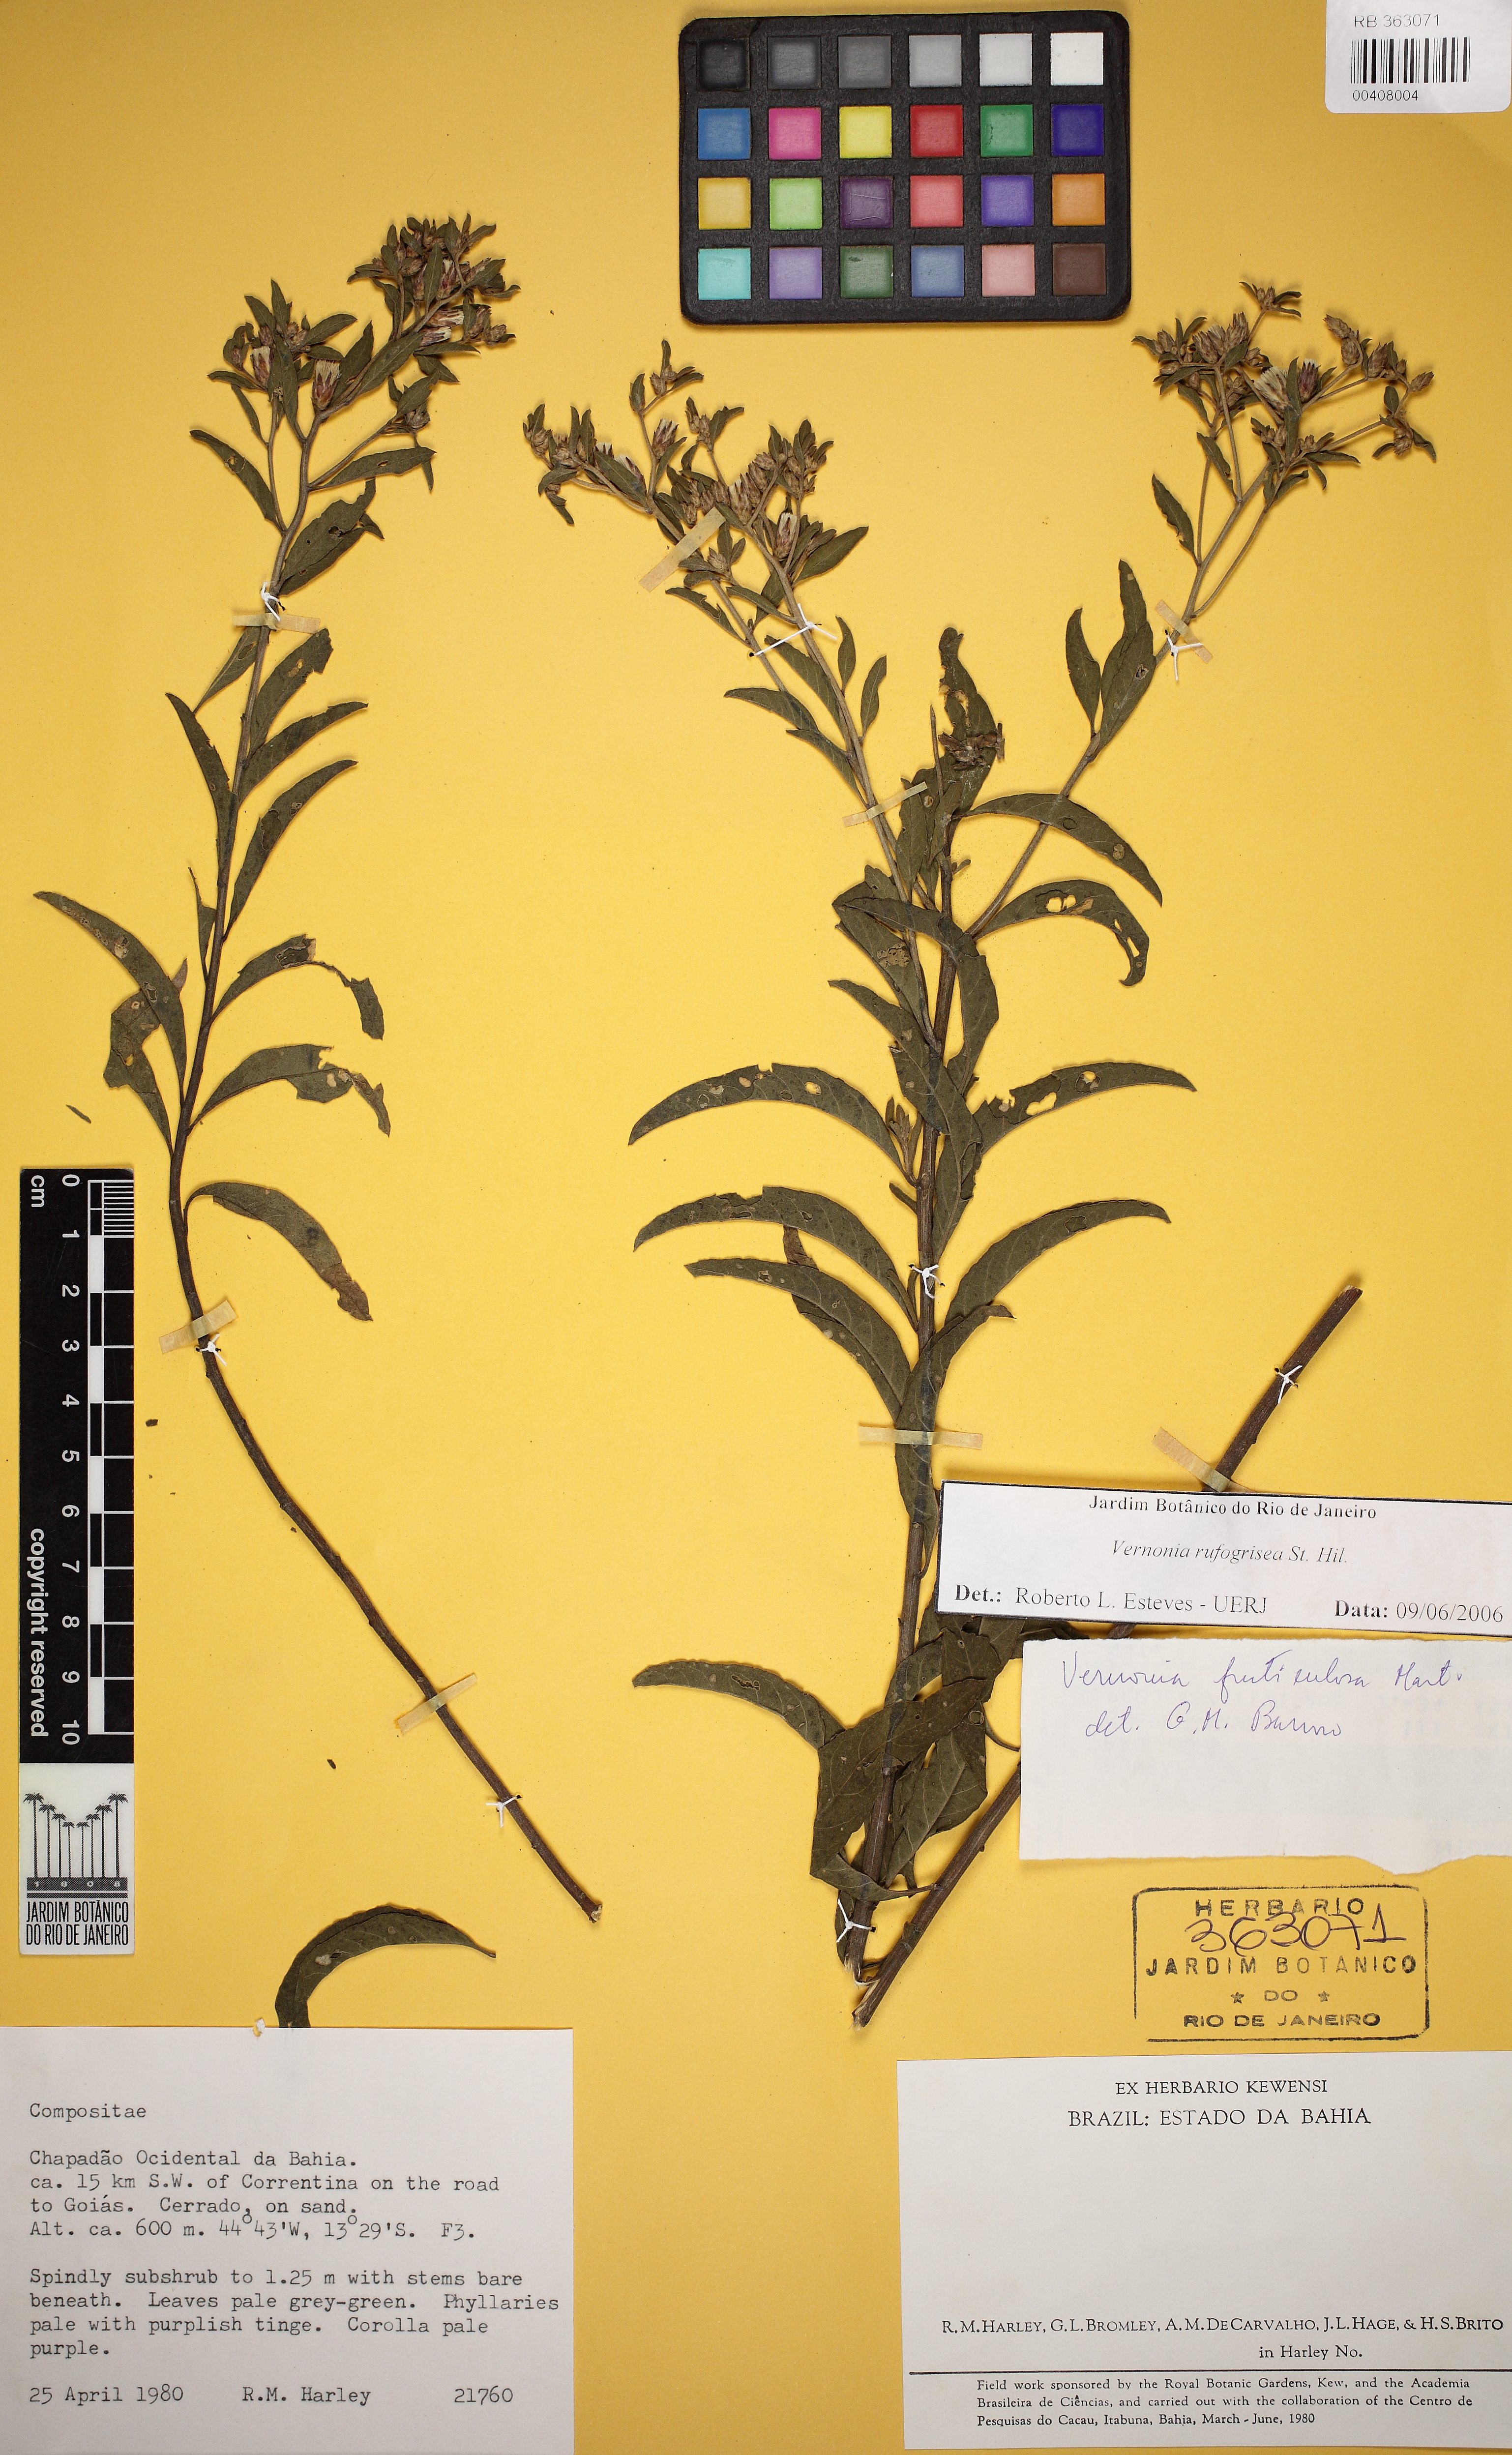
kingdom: Plantae
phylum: Tracheophyta
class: Magnoliopsida
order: Asterales
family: Asteraceae
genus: Lepidaploa
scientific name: Lepidaploa rufogrisea
